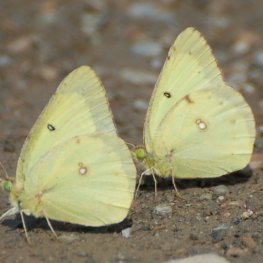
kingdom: Animalia
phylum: Arthropoda
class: Insecta
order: Lepidoptera
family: Pieridae
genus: Colias
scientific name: Colias philodice
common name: Clouded Sulphur
